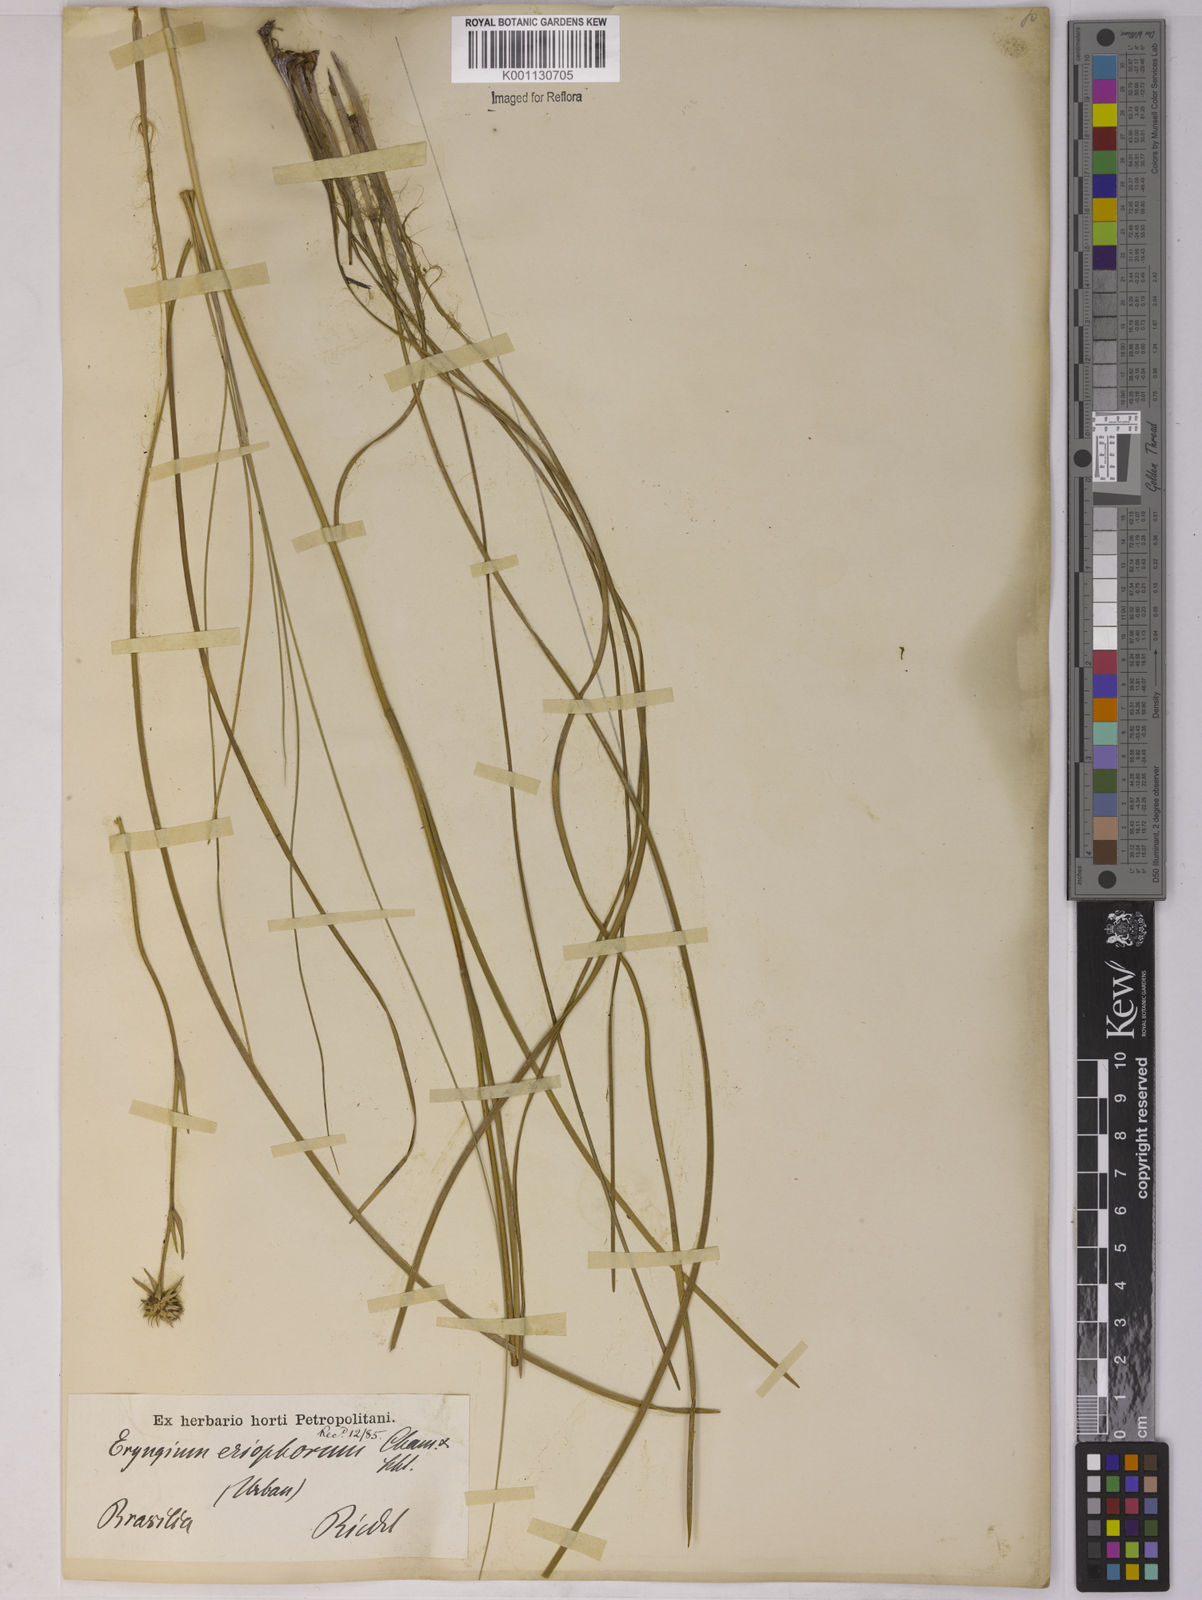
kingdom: Plantae
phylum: Tracheophyta
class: Magnoliopsida
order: Apiales
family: Apiaceae
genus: Eryngium
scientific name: Eryngium eriophorum
